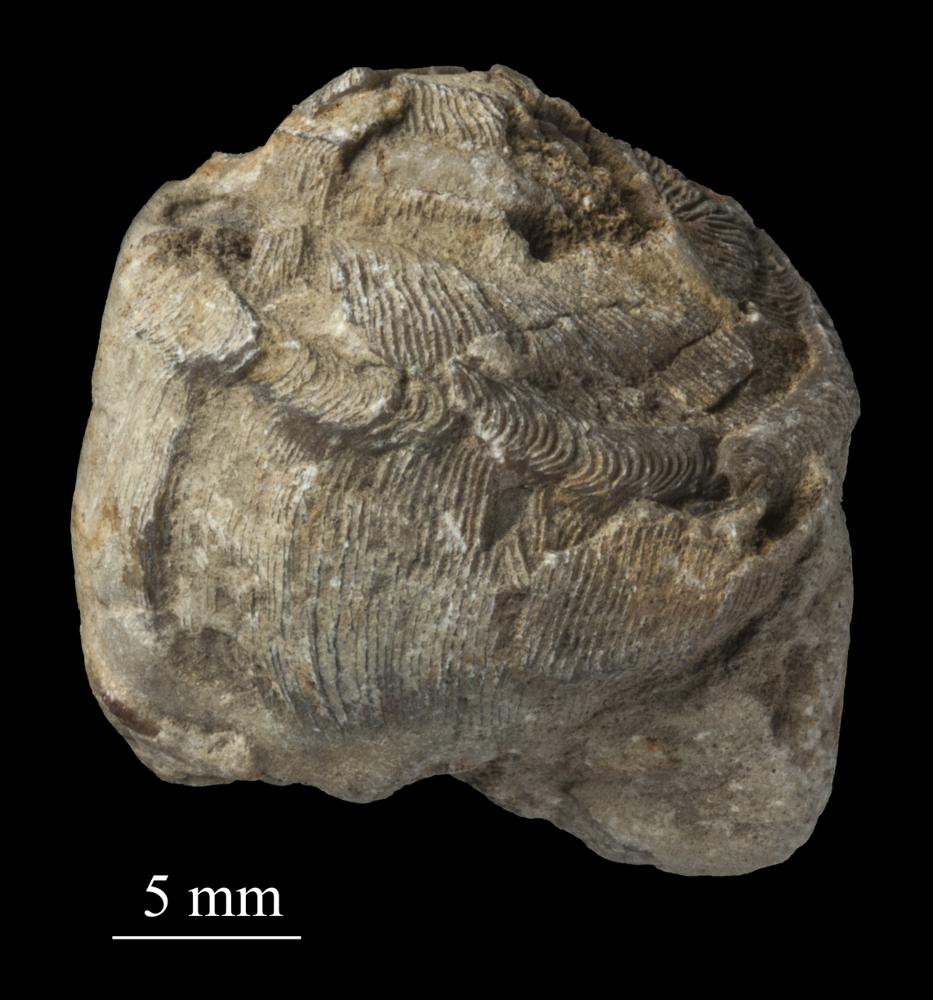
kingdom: Animalia
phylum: Mollusca
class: Gastropoda
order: Pleurotomariida
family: Phanerotrematidae
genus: Brachytomaria
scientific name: Brachytomaria nodulosa
